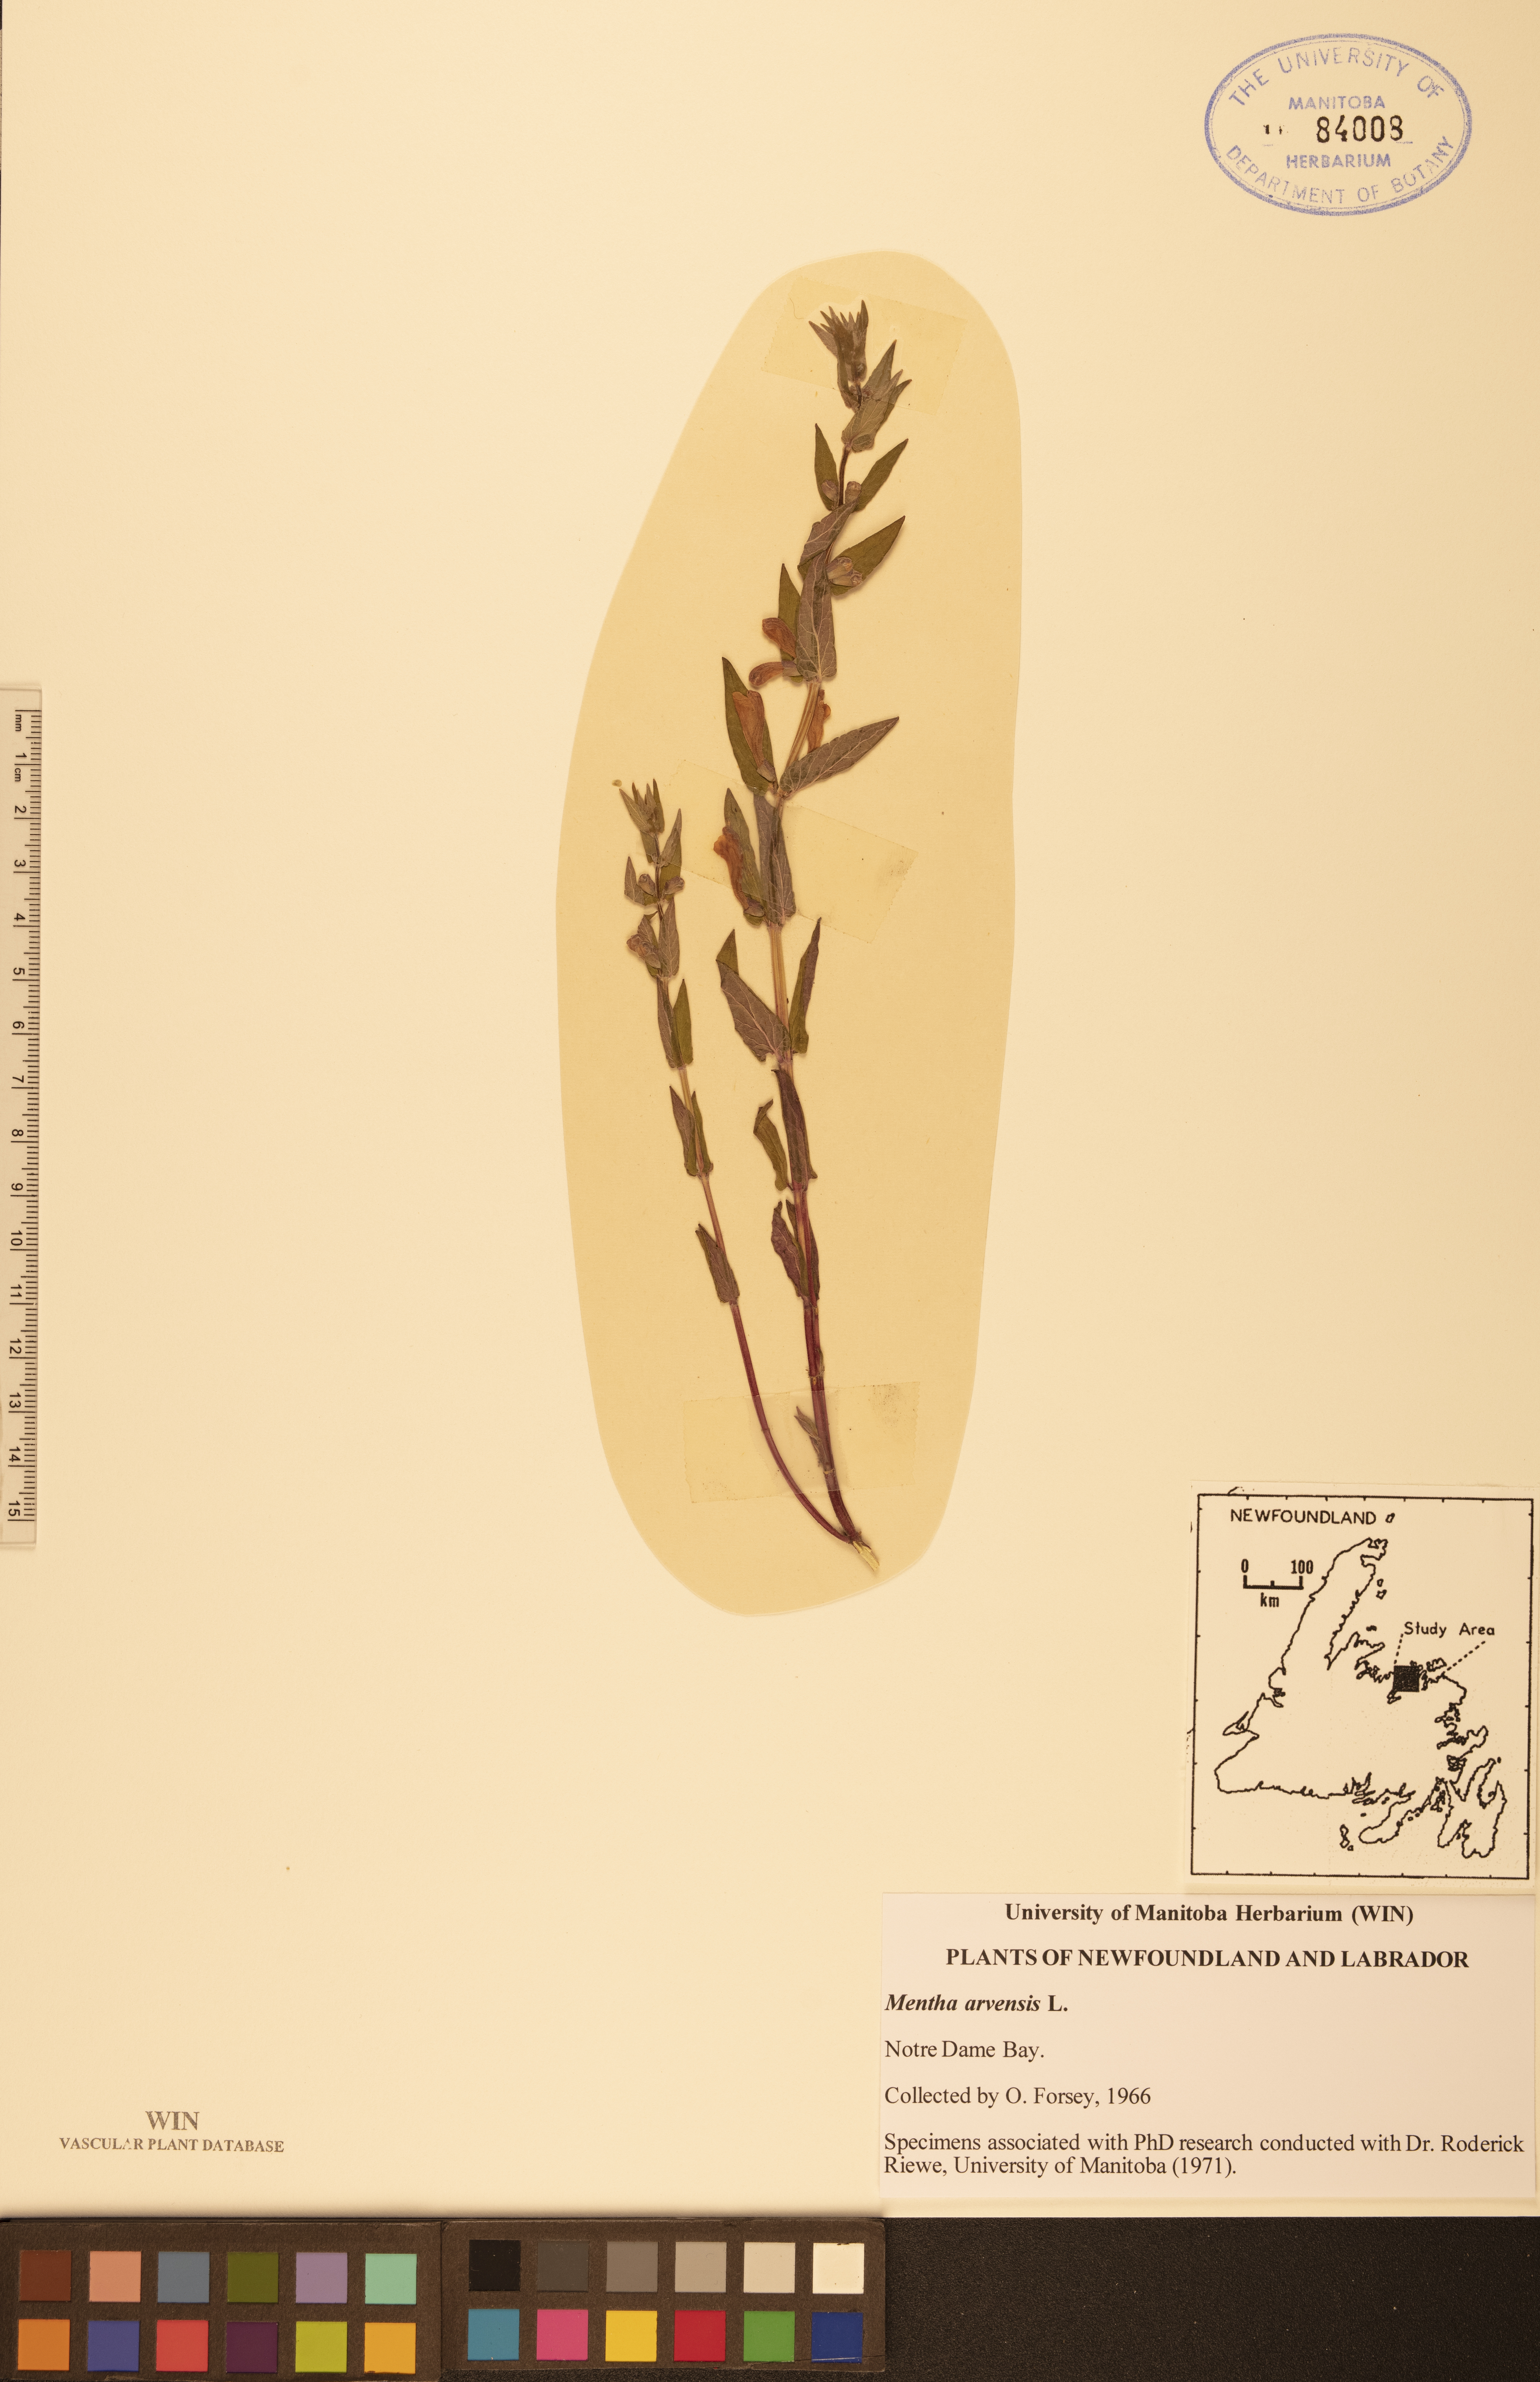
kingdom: Plantae
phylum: Tracheophyta
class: Magnoliopsida
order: Lamiales
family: Lamiaceae
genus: Mentha
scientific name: Mentha arvensis
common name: Corn mint
